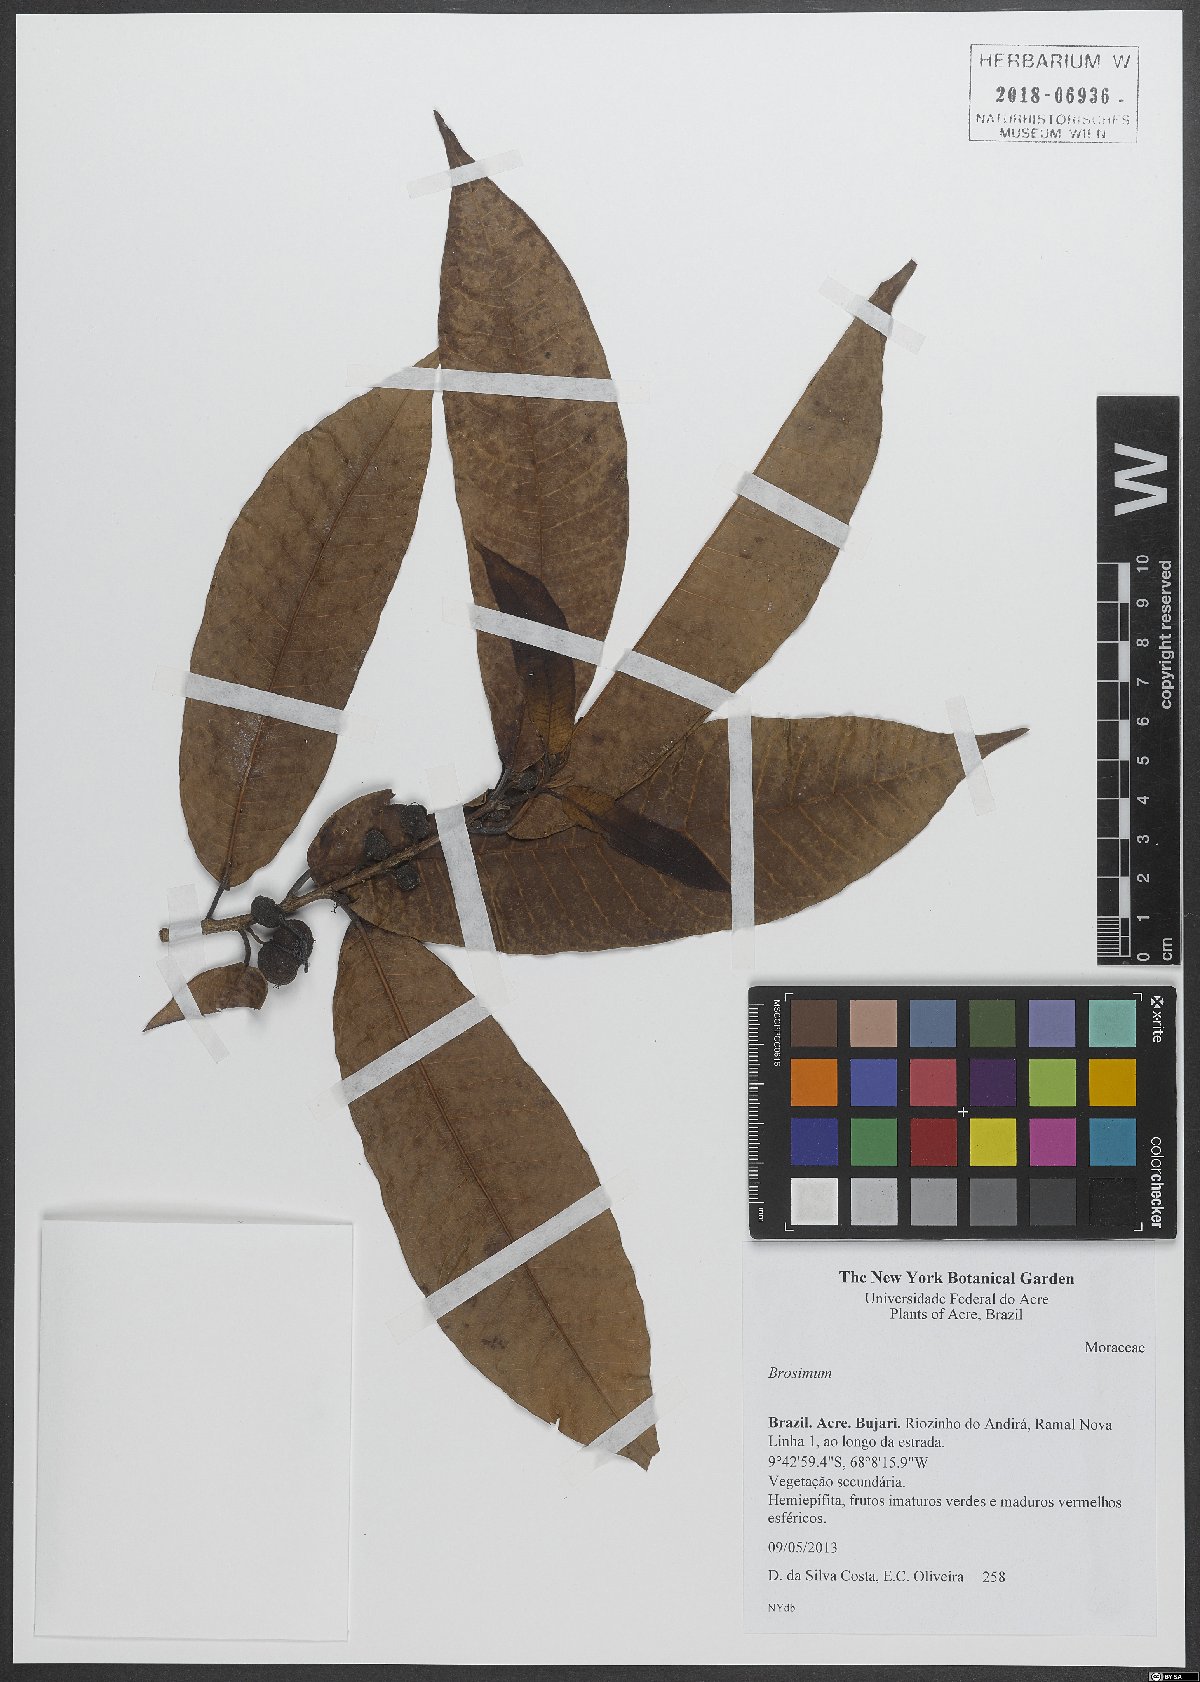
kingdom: Plantae
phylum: Tracheophyta
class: Magnoliopsida
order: Rosales
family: Moraceae
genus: Brosimum
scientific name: Brosimum
